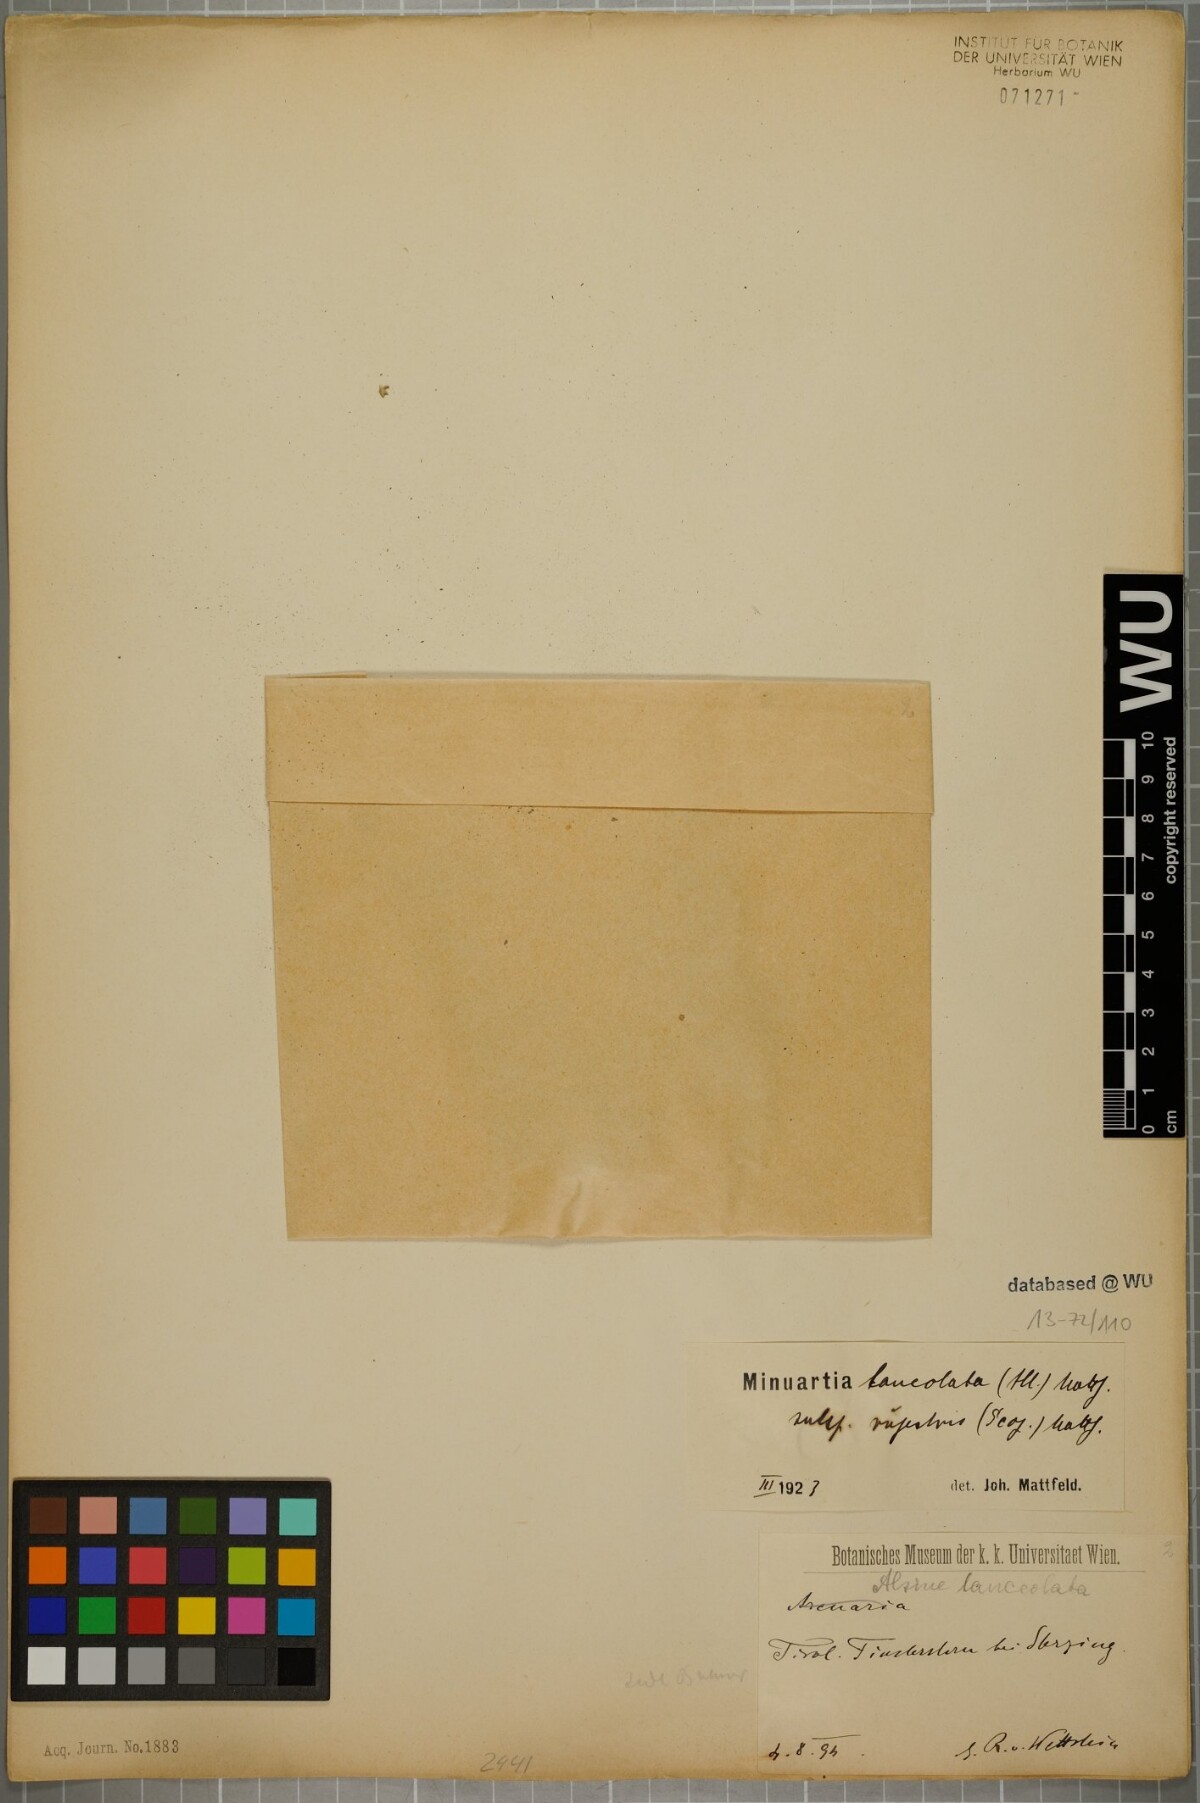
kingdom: Plantae
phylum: Tracheophyta
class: Magnoliopsida
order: Caryophyllales
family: Caryophyllaceae
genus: Facchinia
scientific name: Facchinia rupestris
